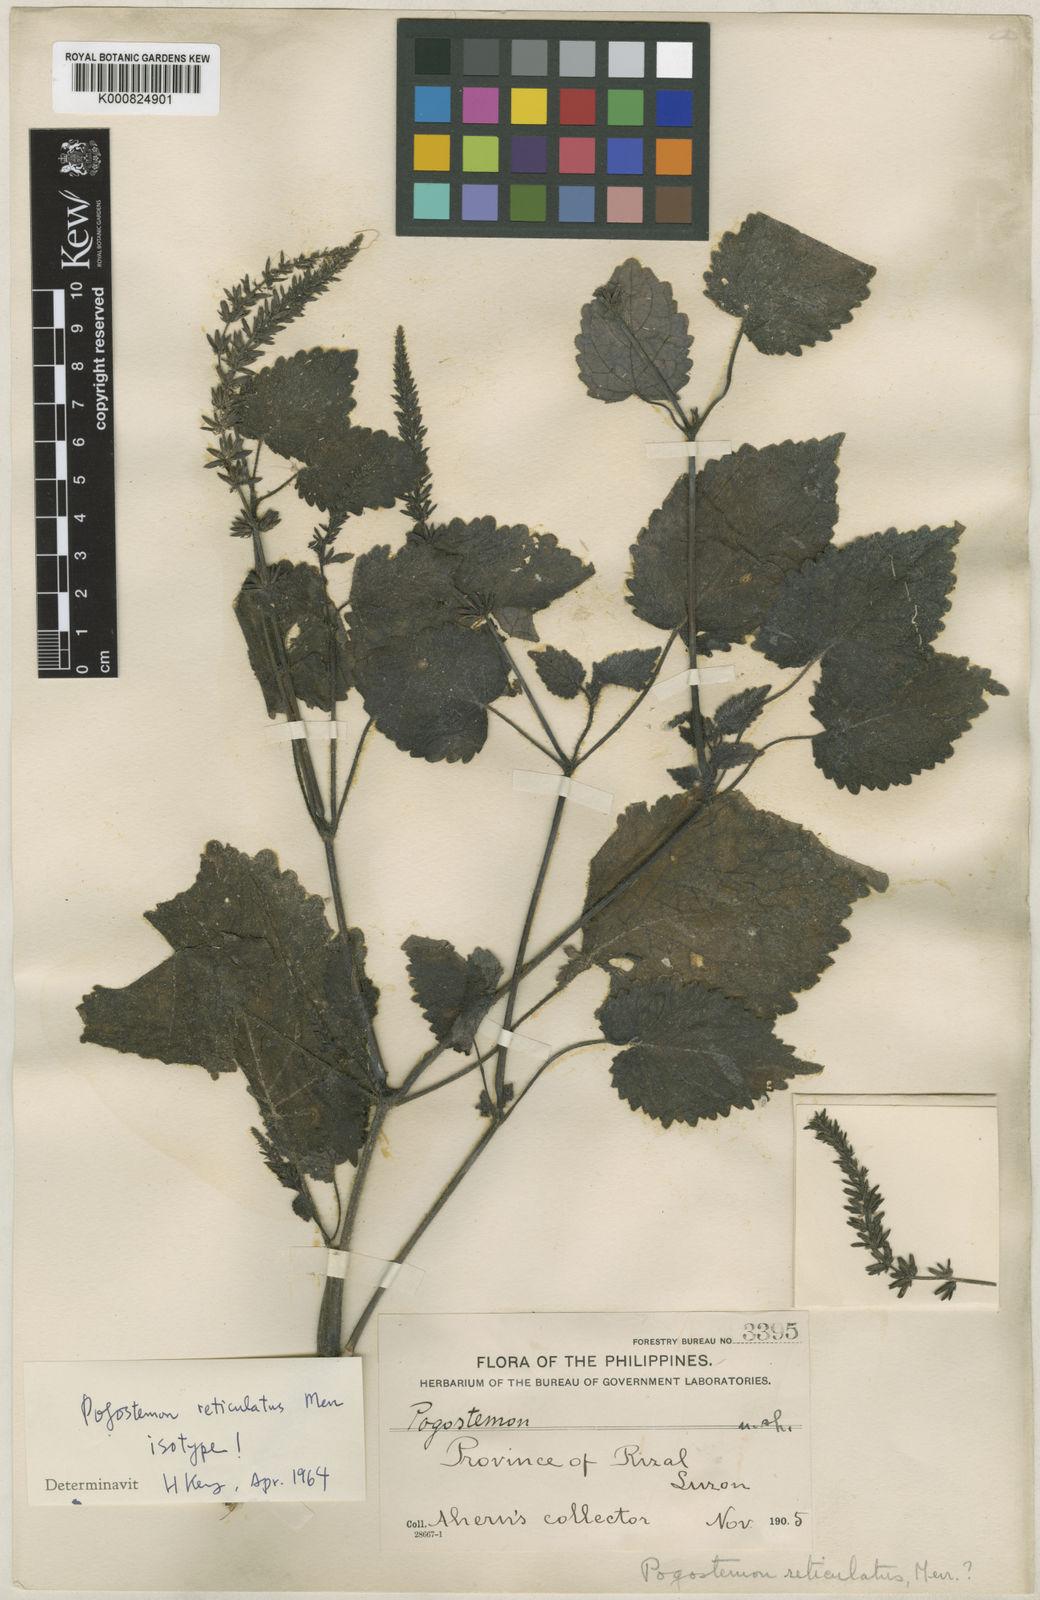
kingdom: Plantae
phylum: Tracheophyta
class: Magnoliopsida
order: Lamiales
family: Lamiaceae
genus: Pogostemon
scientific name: Pogostemon reticulatus
